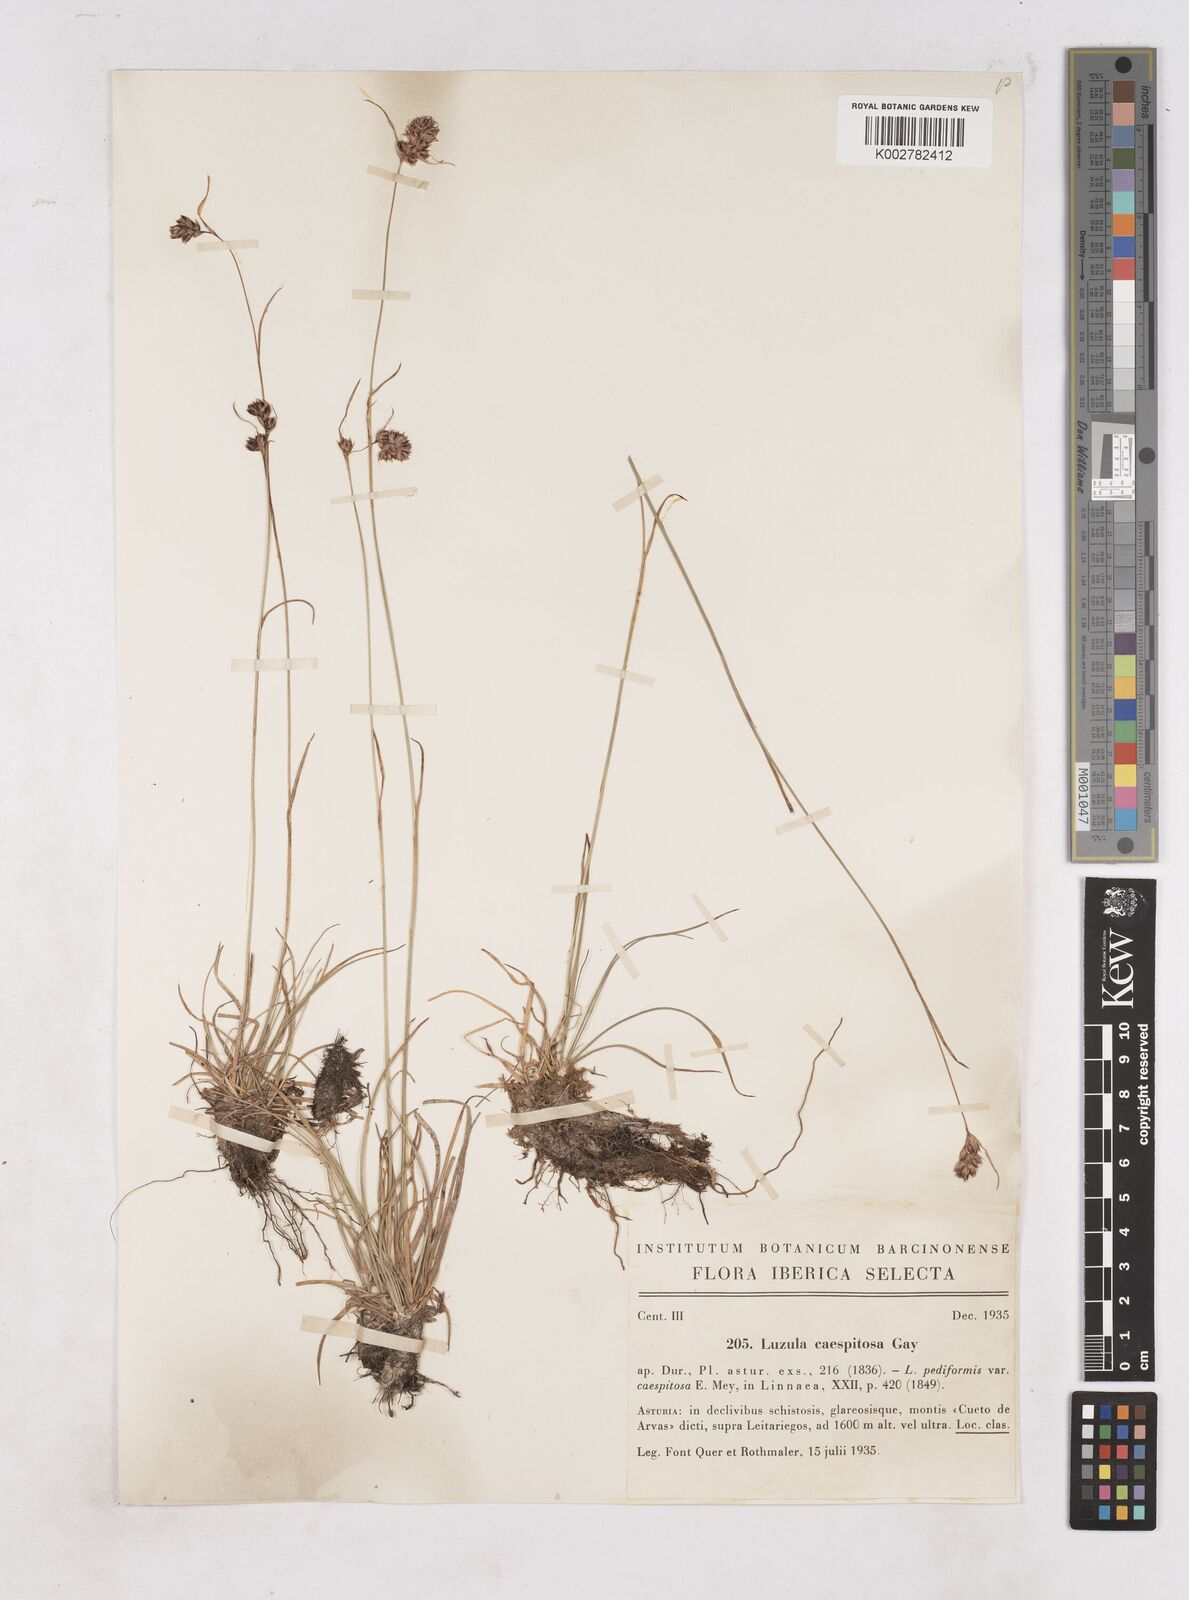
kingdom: Plantae
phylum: Tracheophyta
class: Liliopsida
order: Poales
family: Juncaceae
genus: Luzula
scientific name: Luzula caespitosa
